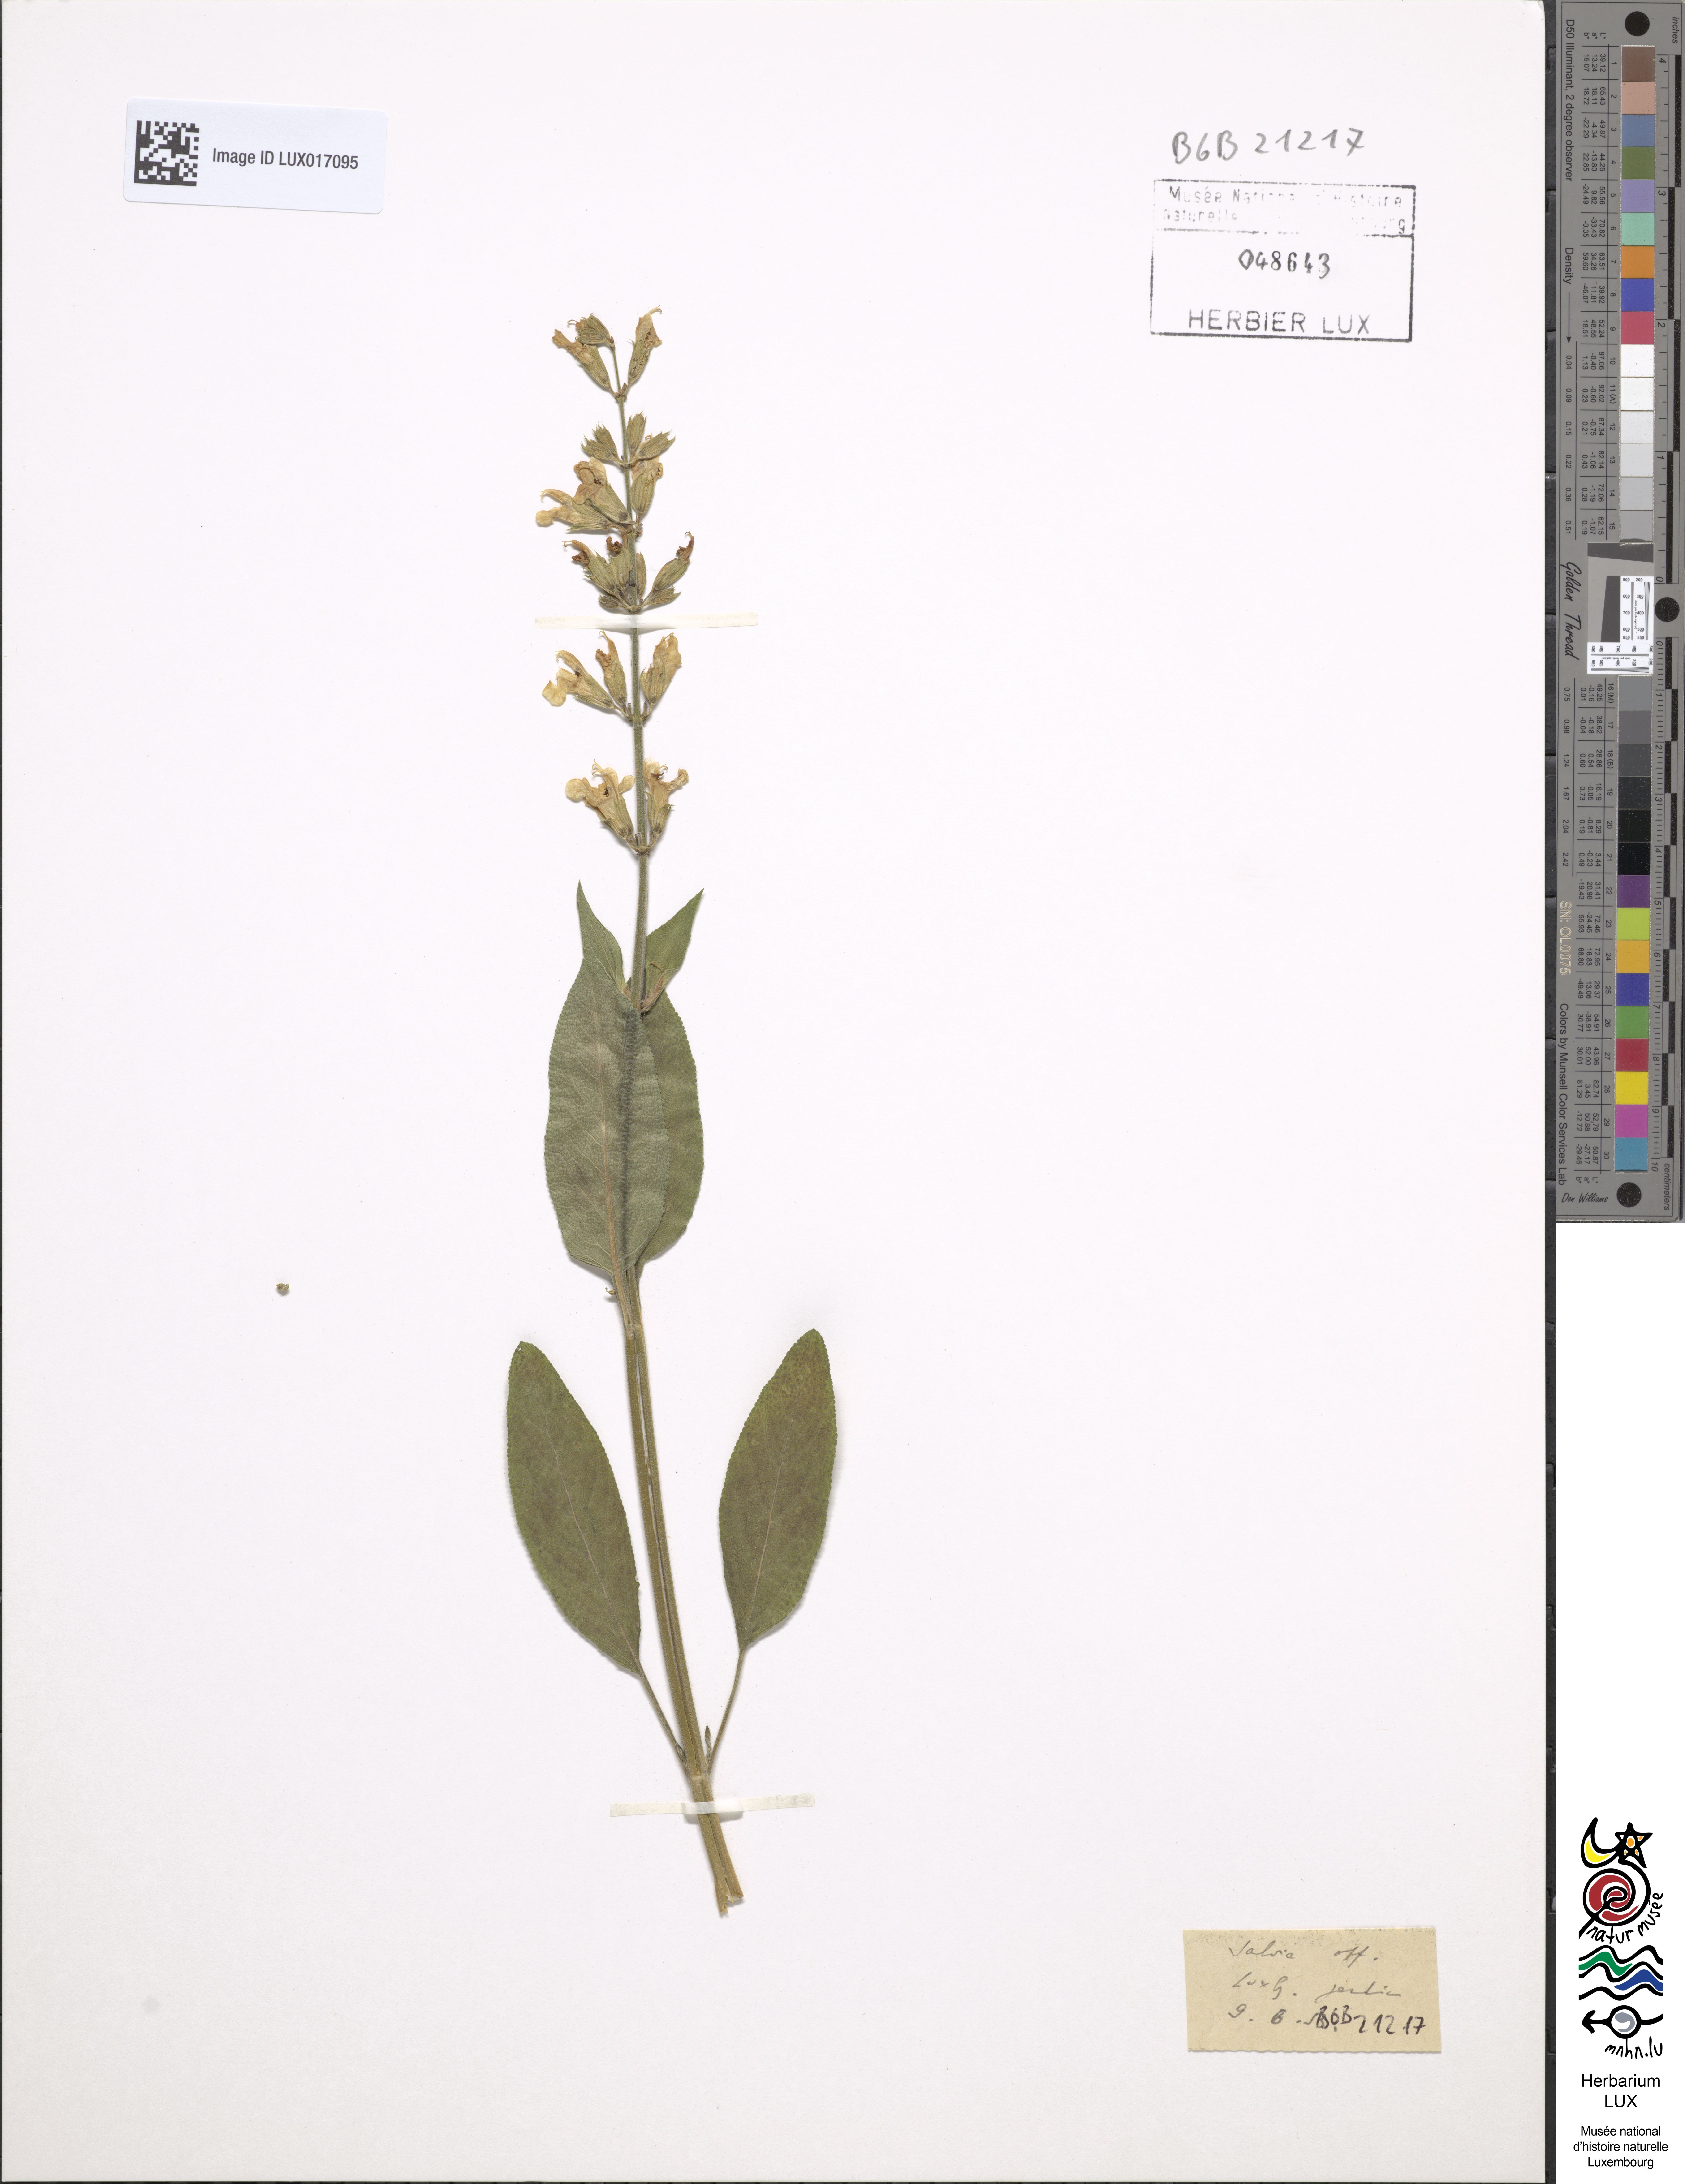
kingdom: Plantae
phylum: Tracheophyta
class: Magnoliopsida
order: Lamiales
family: Lamiaceae
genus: Salvia
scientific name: Salvia officinalis
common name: Sage
